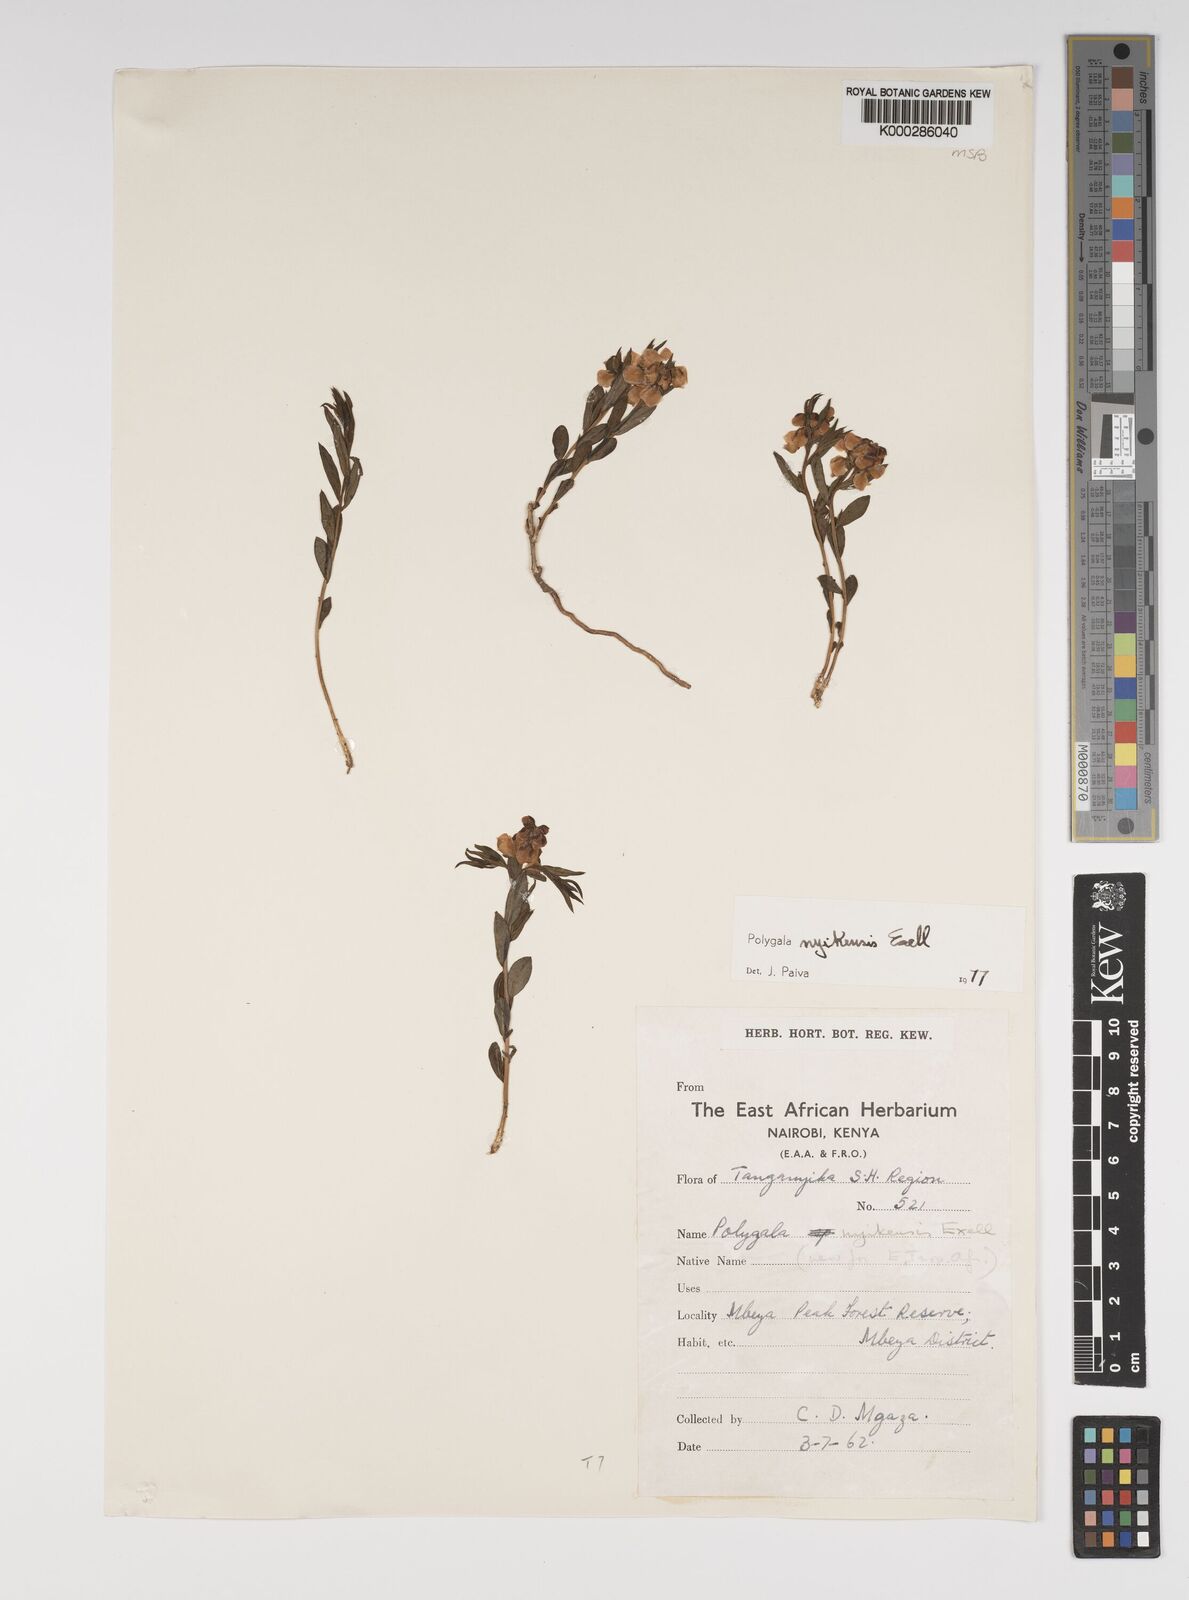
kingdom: Plantae
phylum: Tracheophyta
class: Magnoliopsida
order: Fabales
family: Polygalaceae
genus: Polygala
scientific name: Polygala nyikensis
